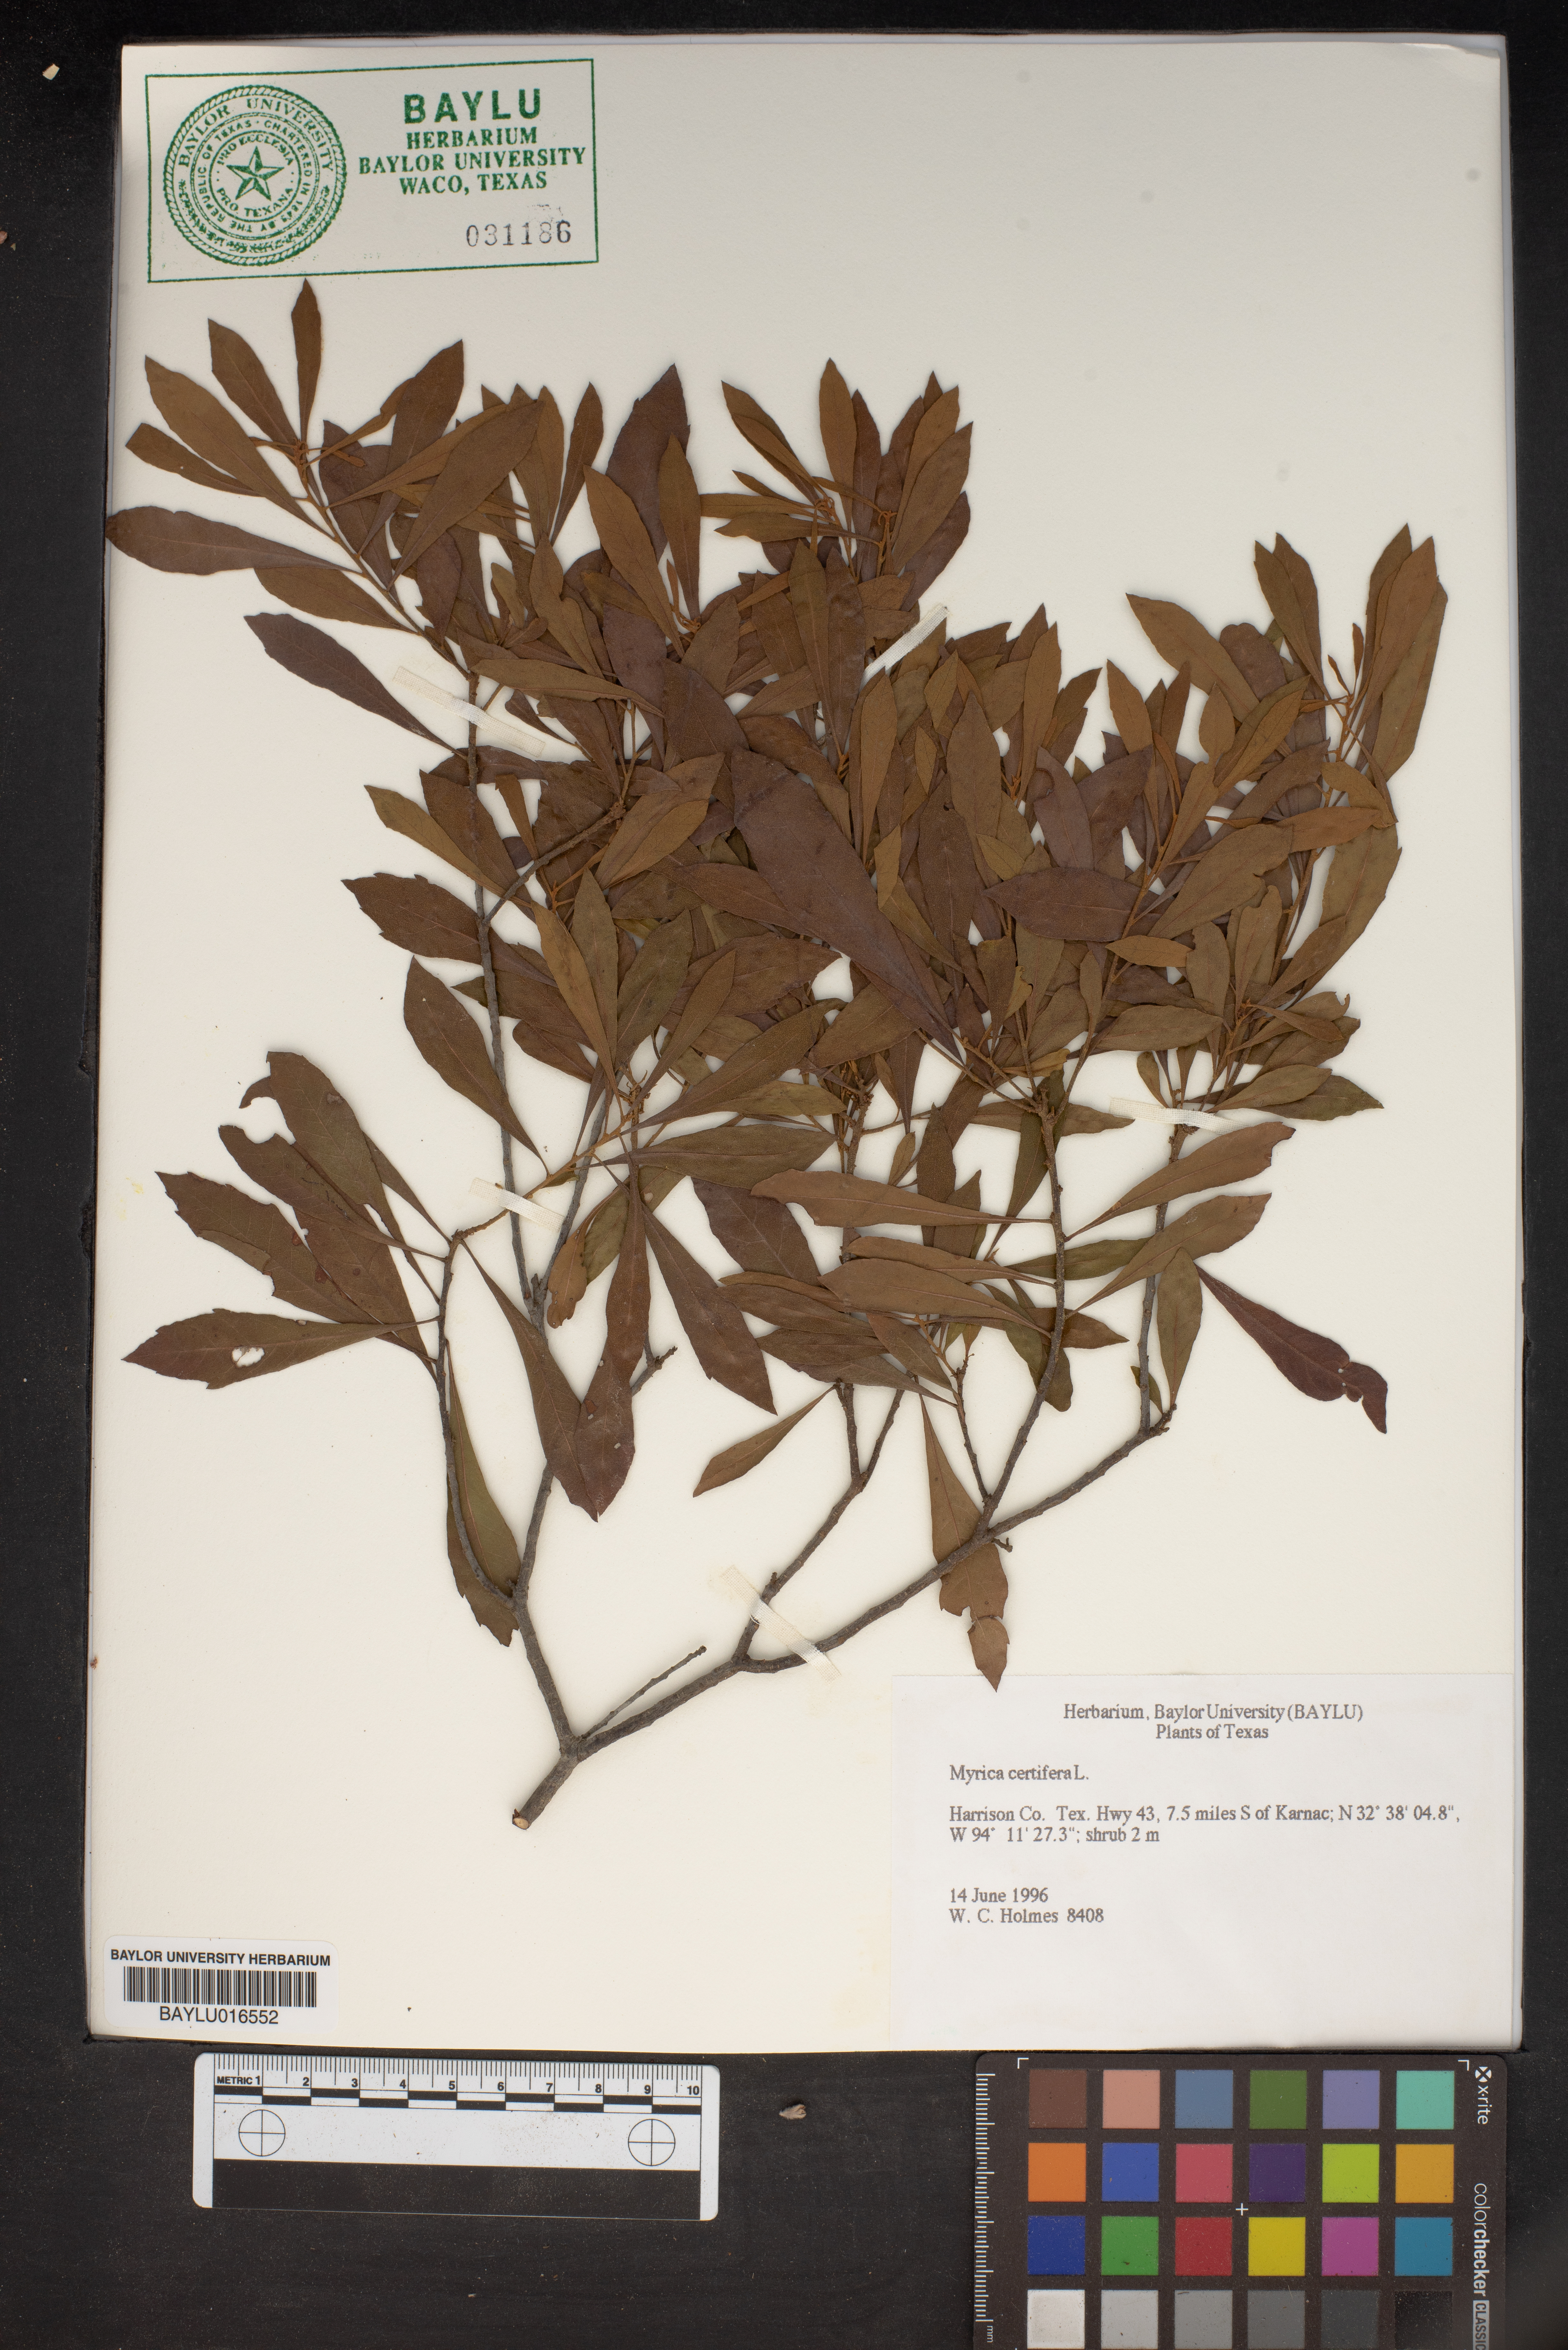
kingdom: Plantae
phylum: Tracheophyta
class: Magnoliopsida
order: Fagales
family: Myricaceae
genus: Morella
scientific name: Morella cerifera
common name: Wax myrtle
